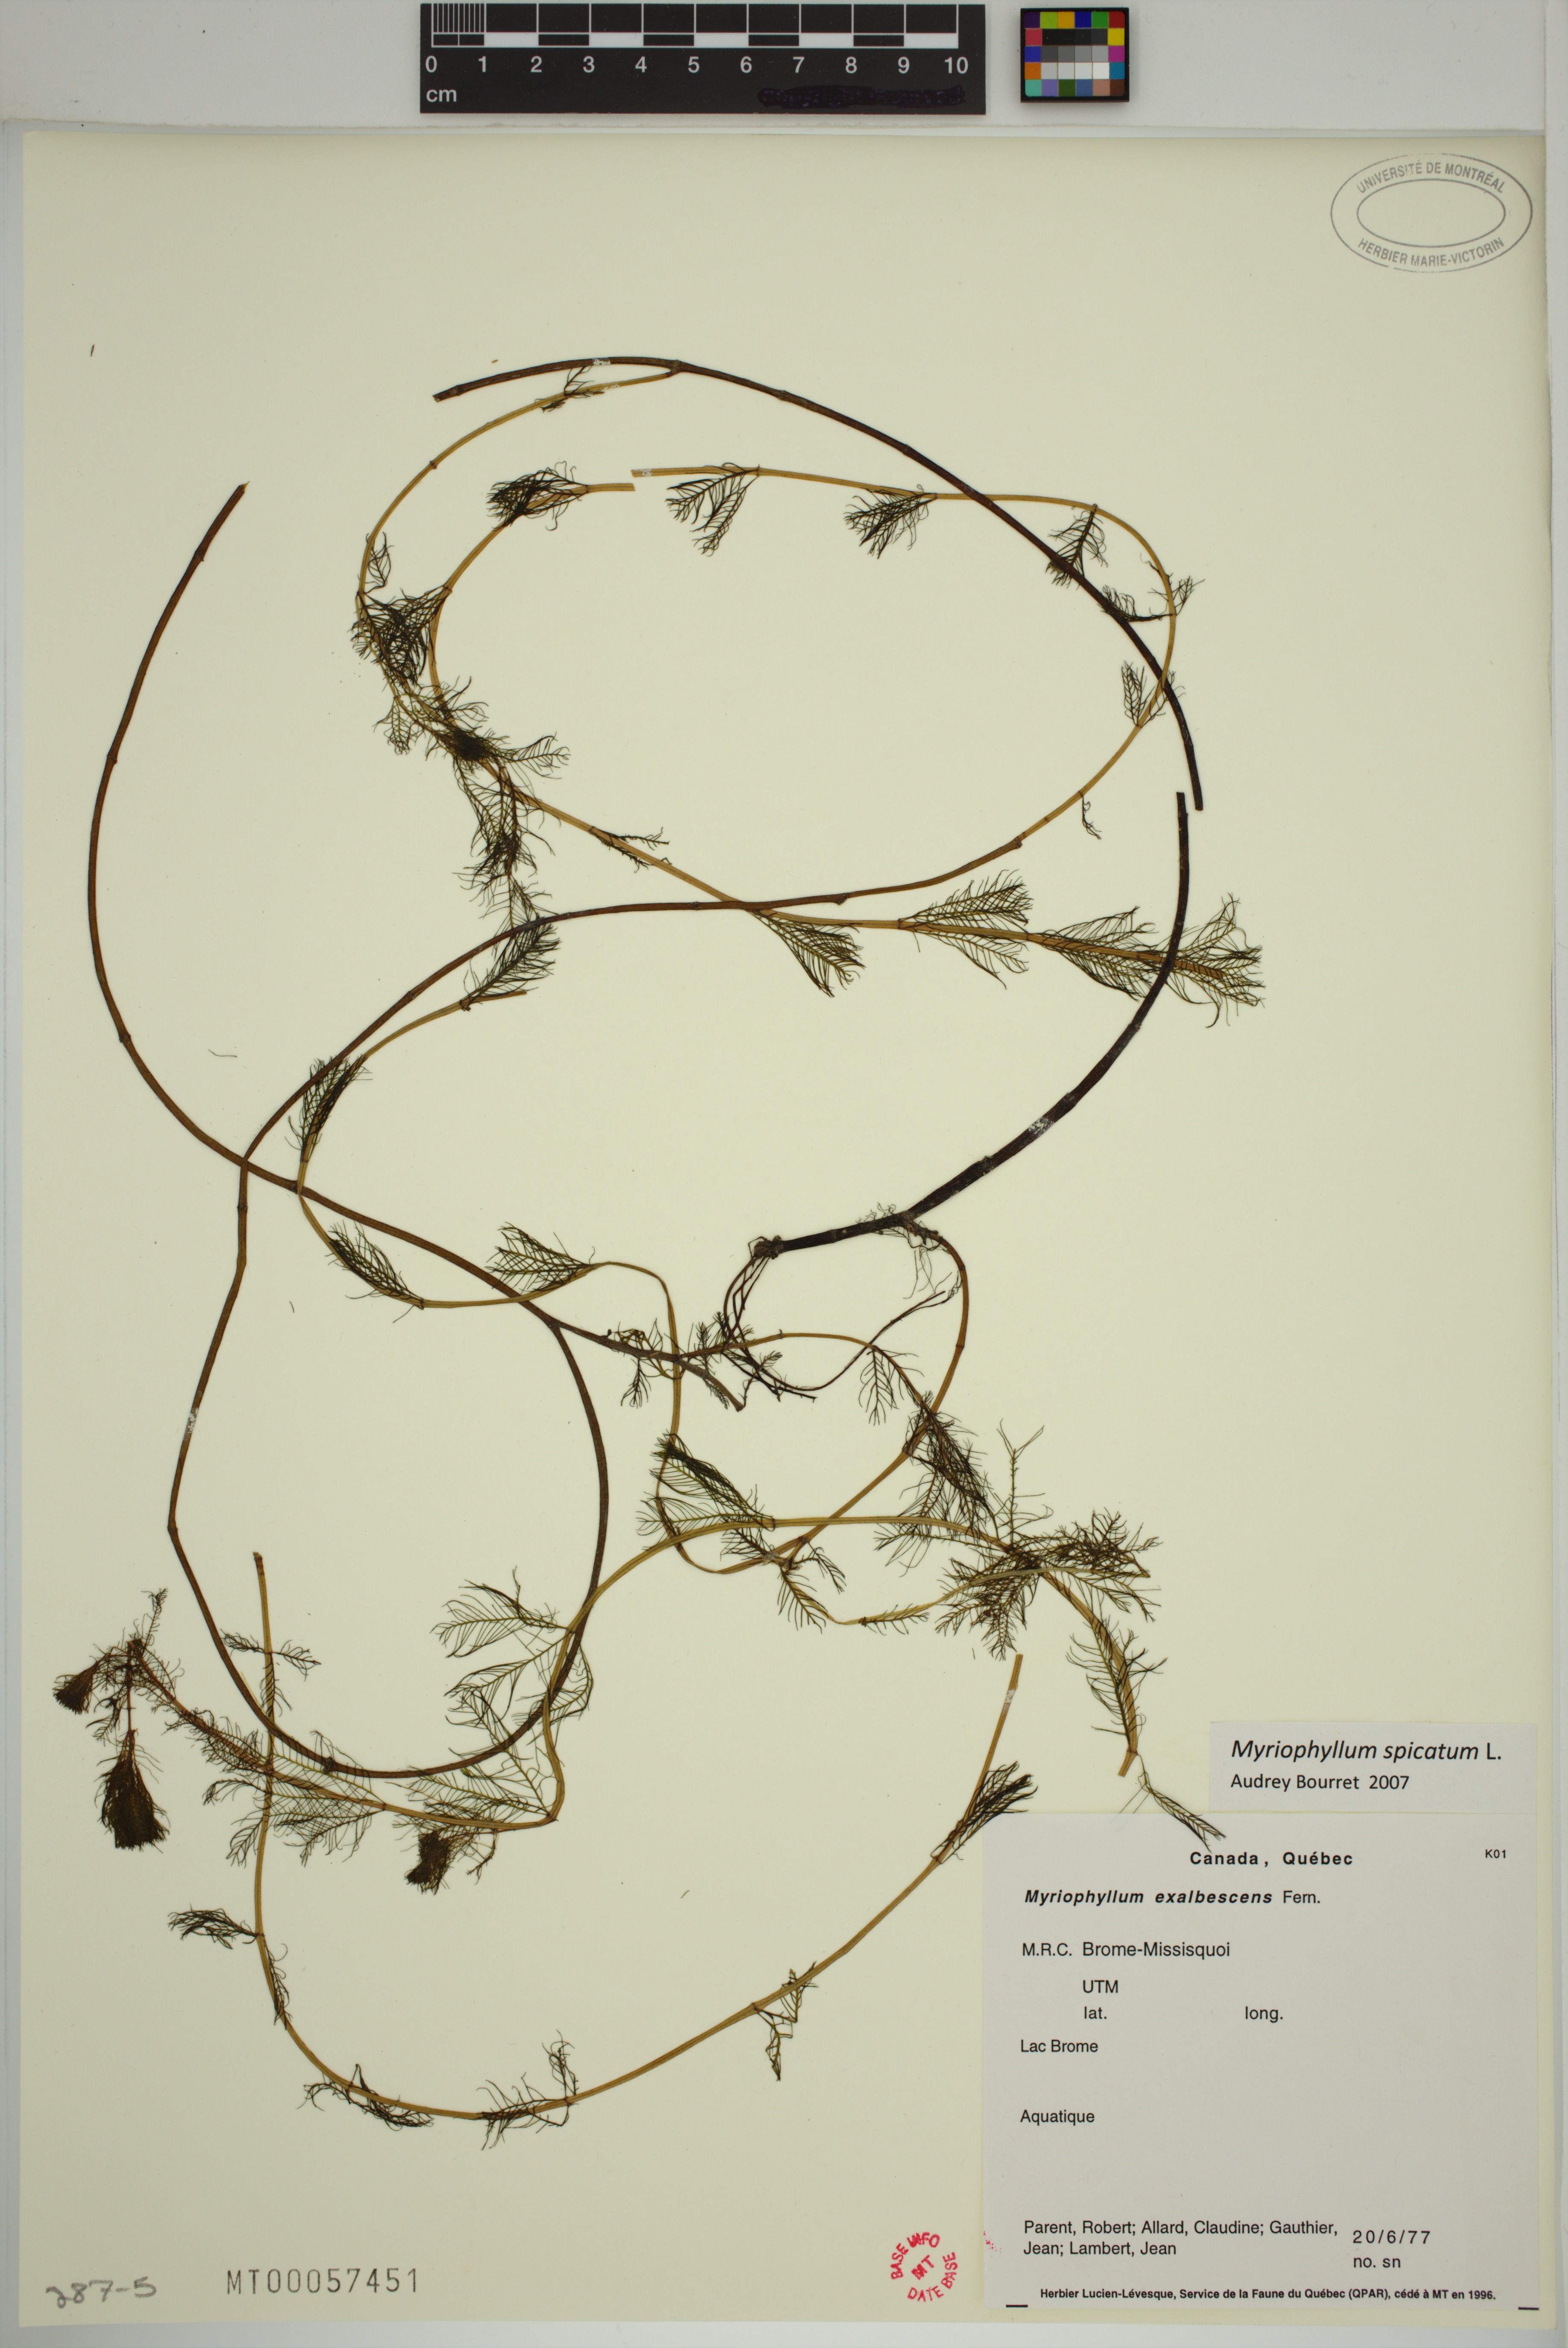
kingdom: Plantae
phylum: Tracheophyta
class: Magnoliopsida
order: Saxifragales
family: Haloragaceae
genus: Myriophyllum
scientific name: Myriophyllum spicatum
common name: Spiked water-milfoil
